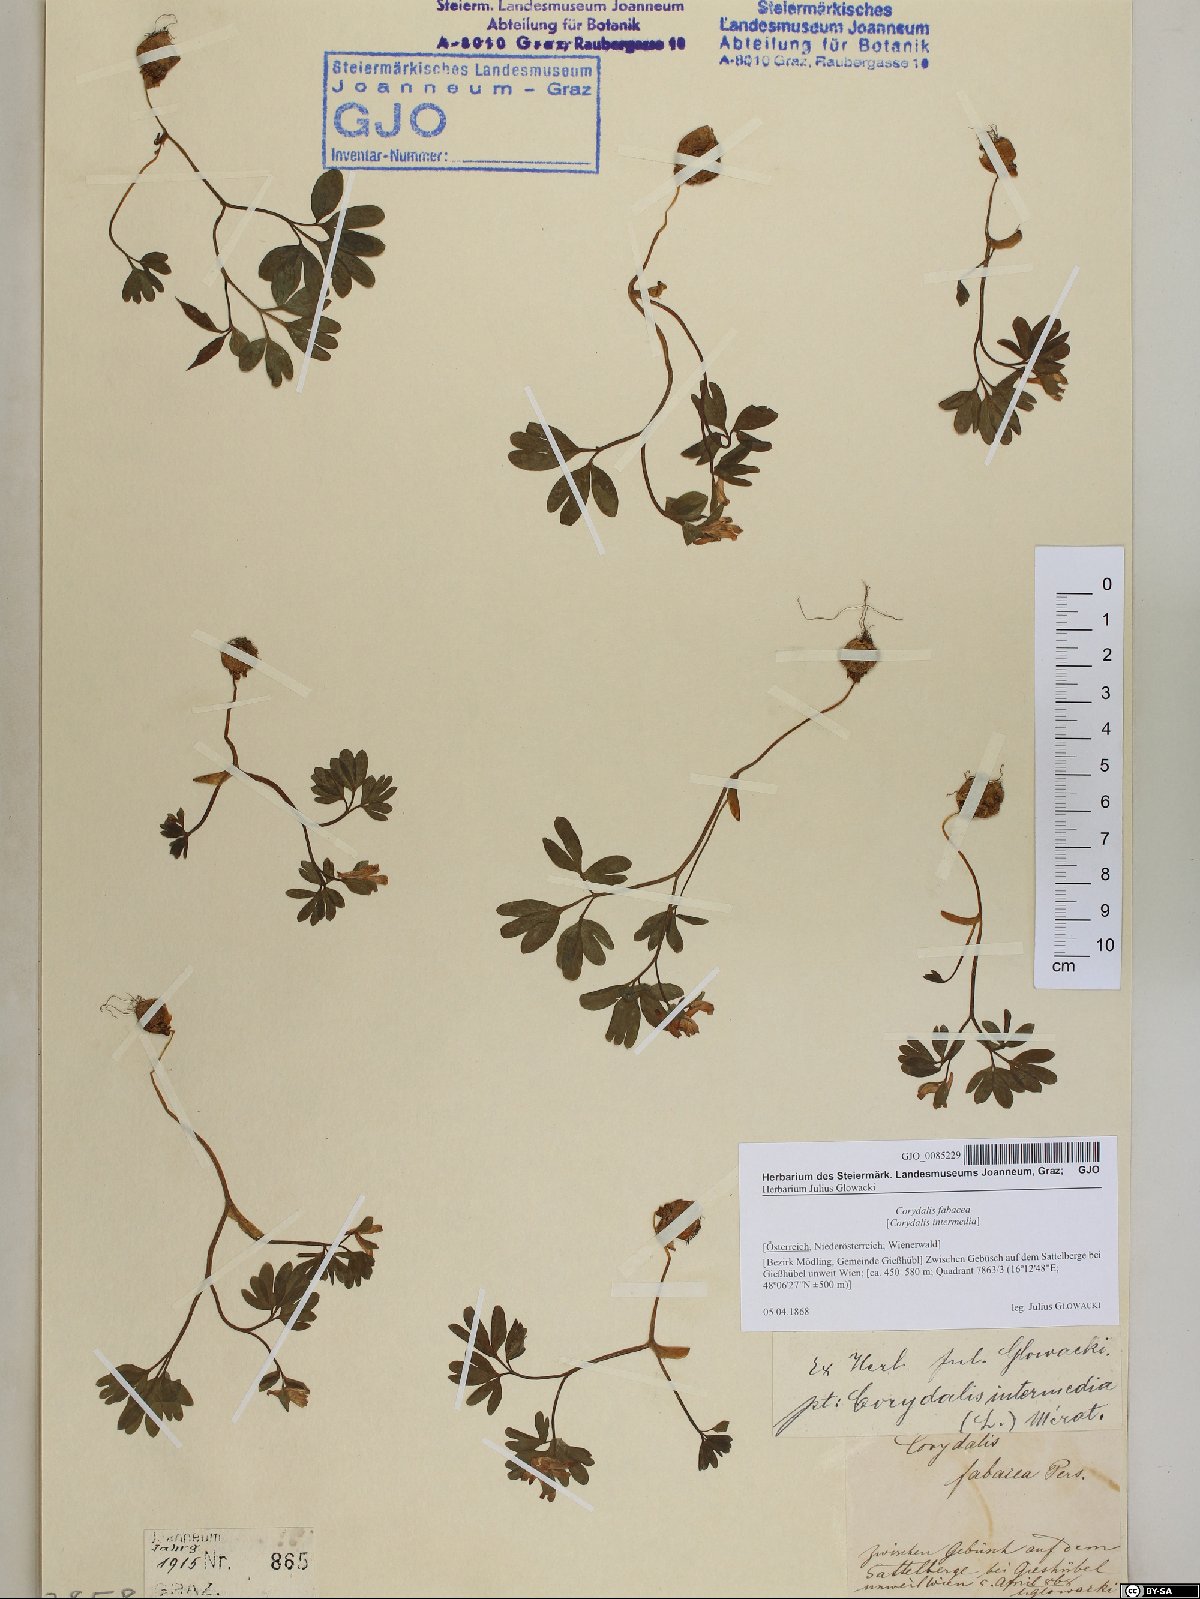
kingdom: Plantae
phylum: Tracheophyta
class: Magnoliopsida
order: Ranunculales
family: Papaveraceae
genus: Corydalis
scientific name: Corydalis intermedia
